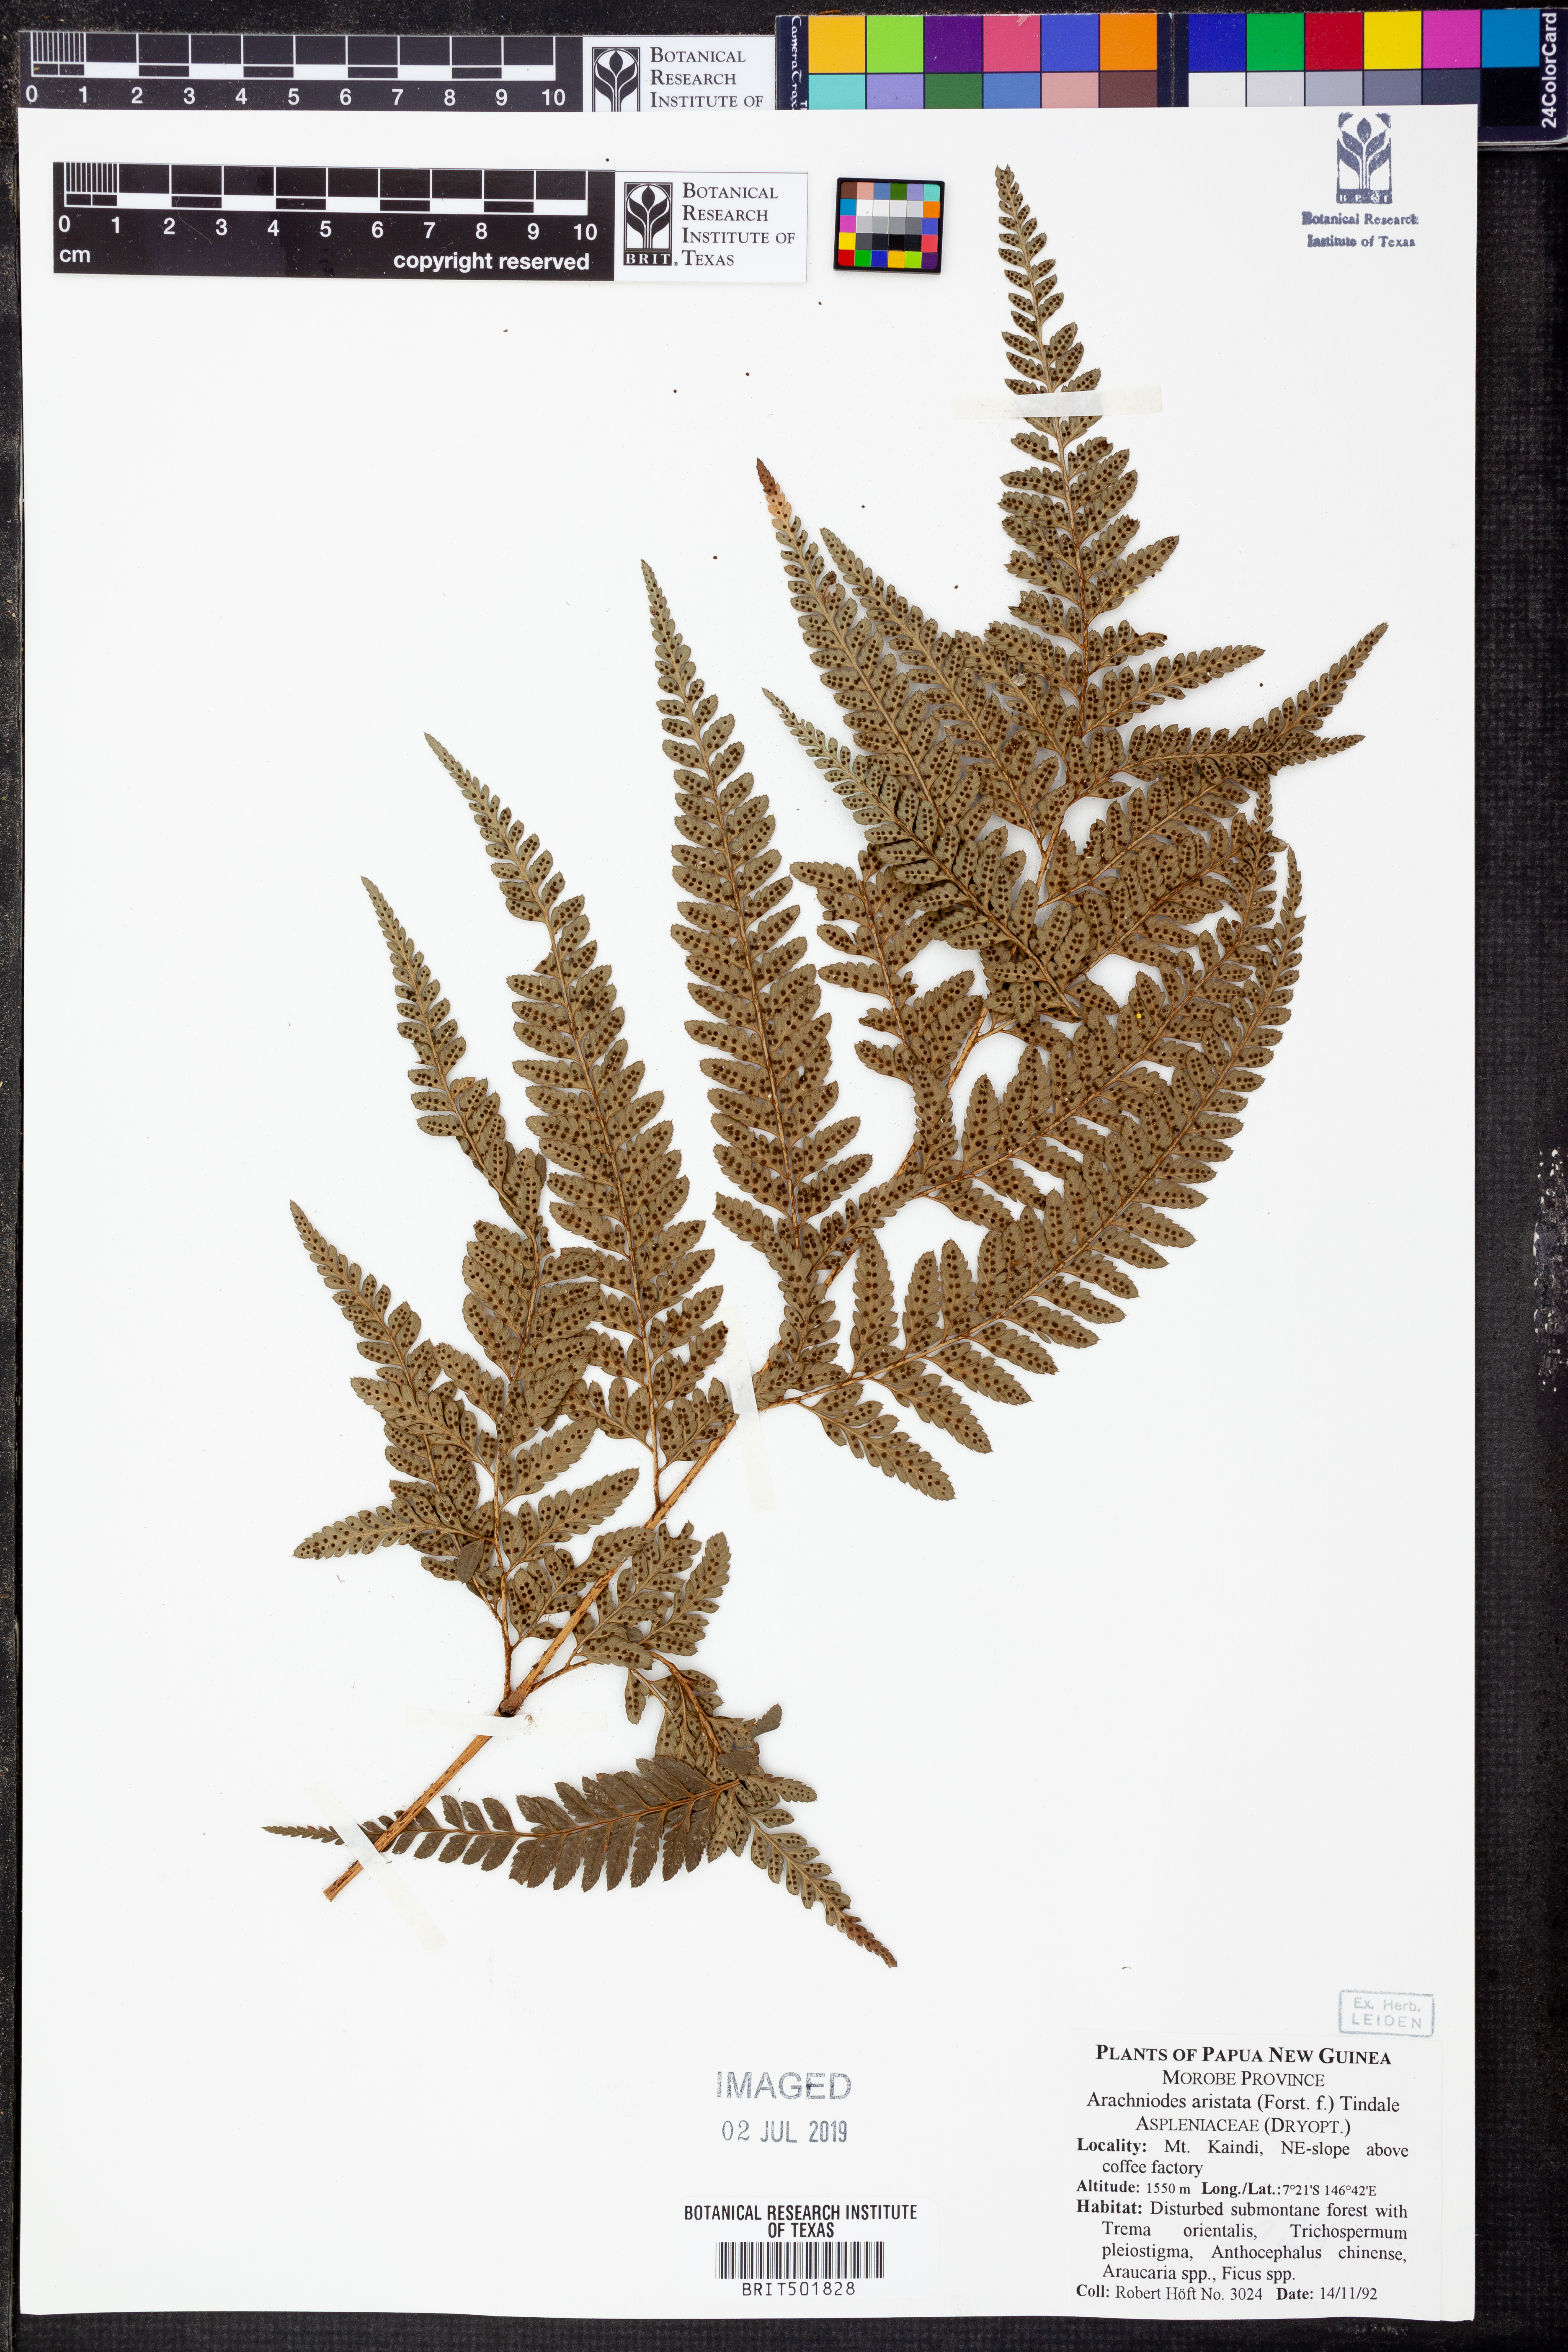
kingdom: Plantae
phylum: Tracheophyta
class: Polypodiopsida
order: Polypodiales
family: Dryopteridaceae
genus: Arachniodes
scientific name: Arachniodes aristata
